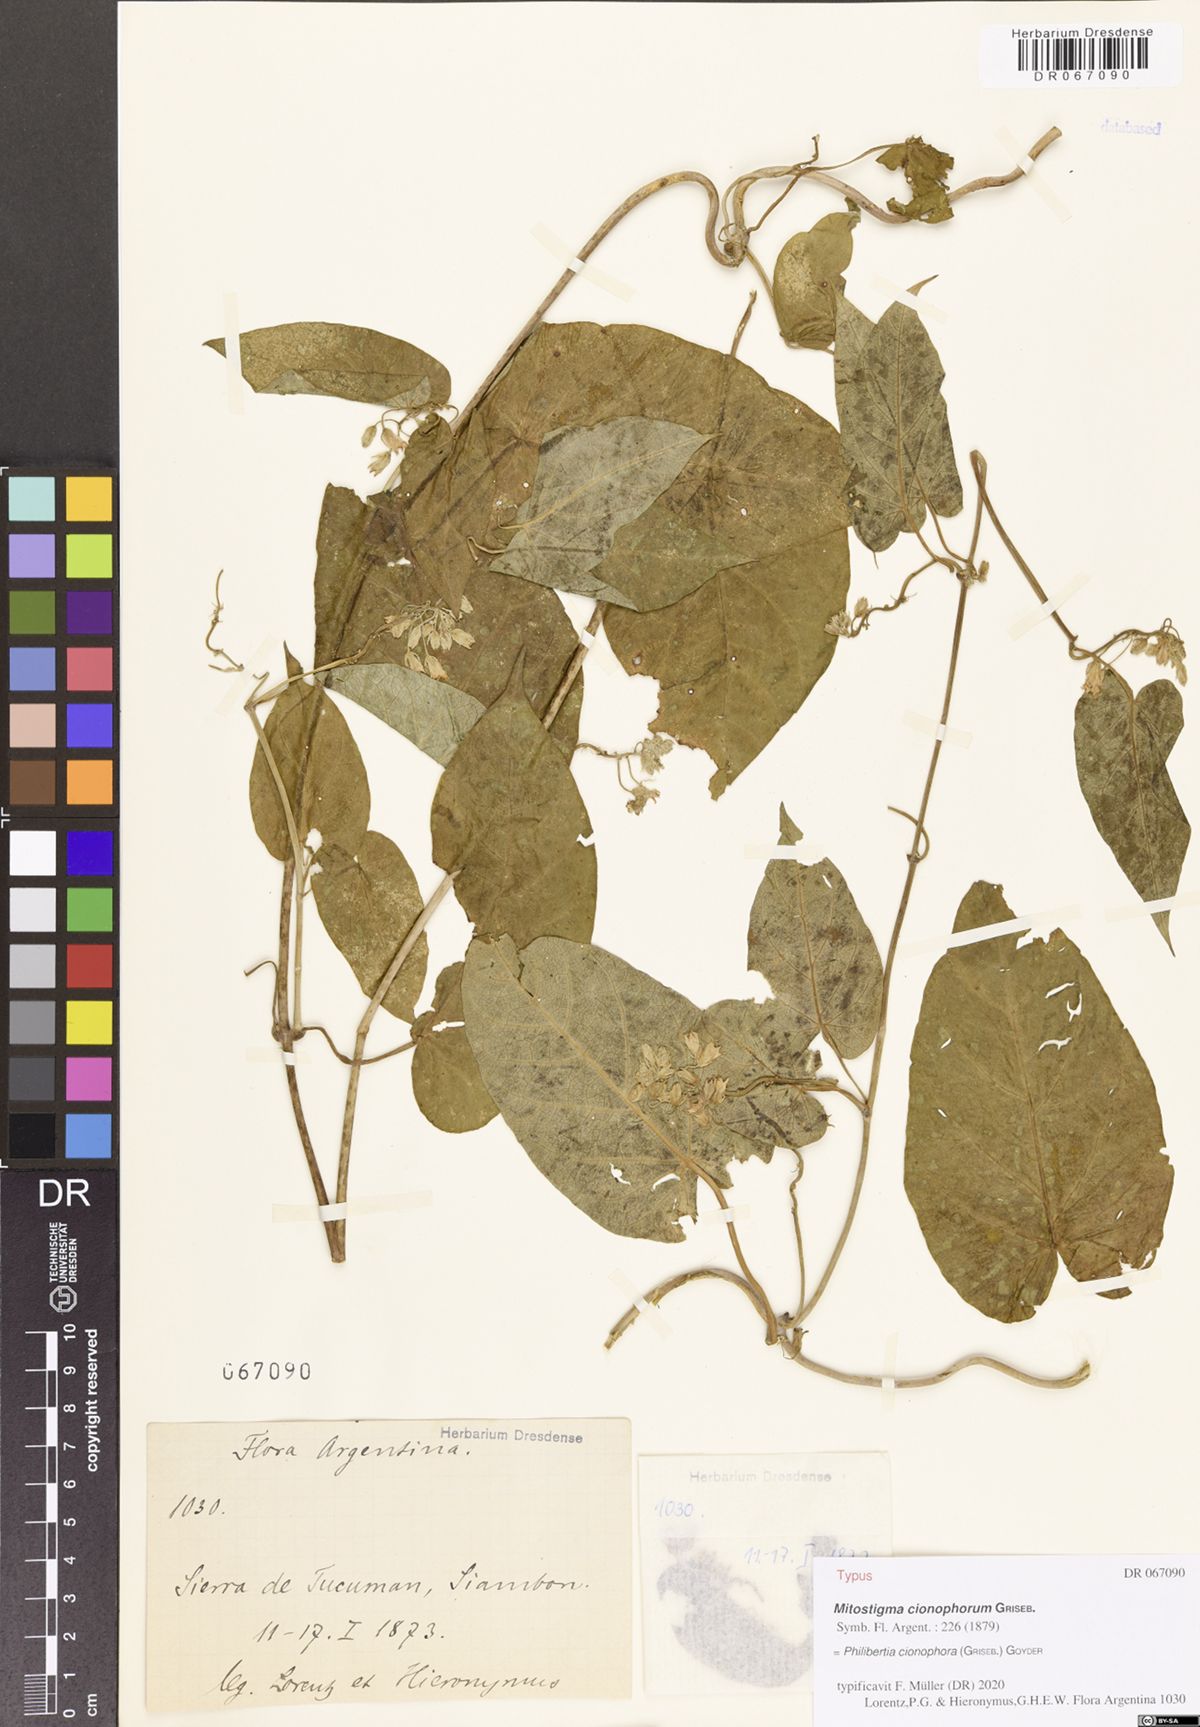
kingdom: Plantae
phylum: Tracheophyta
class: Magnoliopsida
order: Gentianales
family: Apocynaceae
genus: Philibertia
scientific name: Philibertia cionophora
